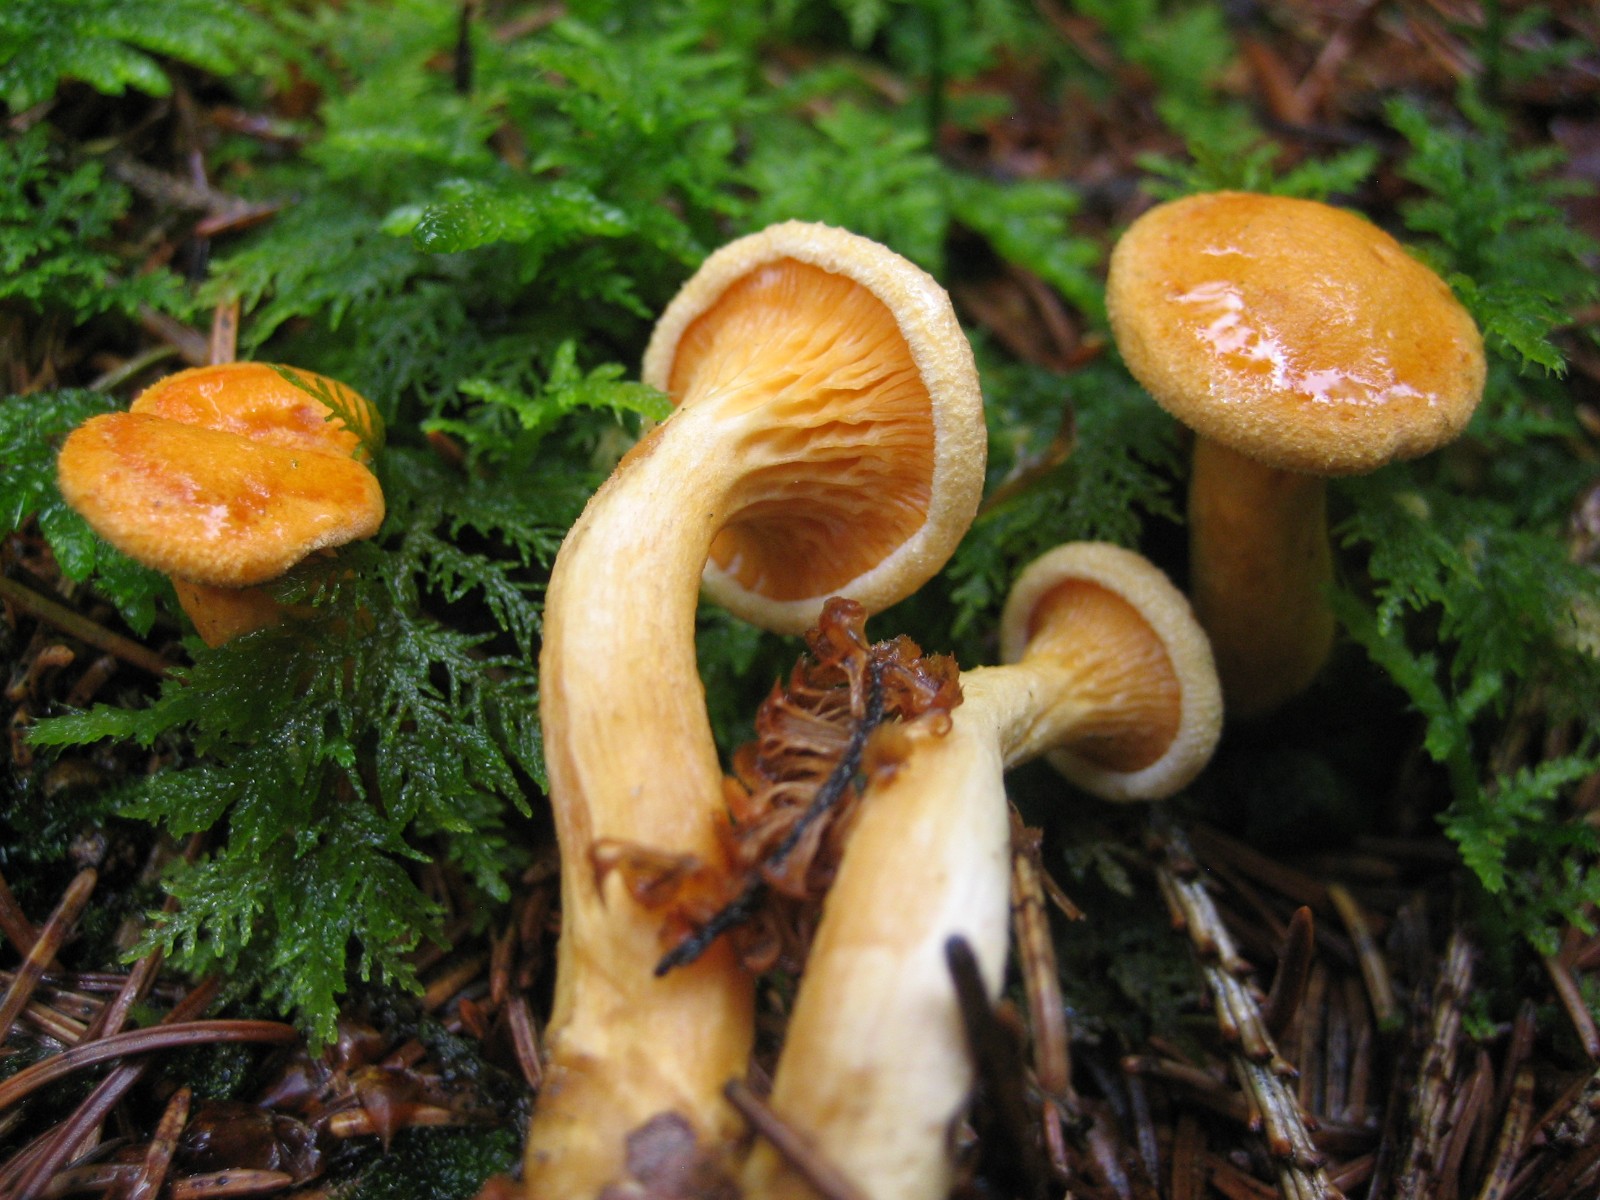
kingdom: Fungi
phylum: Basidiomycota
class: Agaricomycetes
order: Boletales
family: Hygrophoropsidaceae
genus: Hygrophoropsis
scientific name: Hygrophoropsis aurantiaca
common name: almindelig orangekantarel
